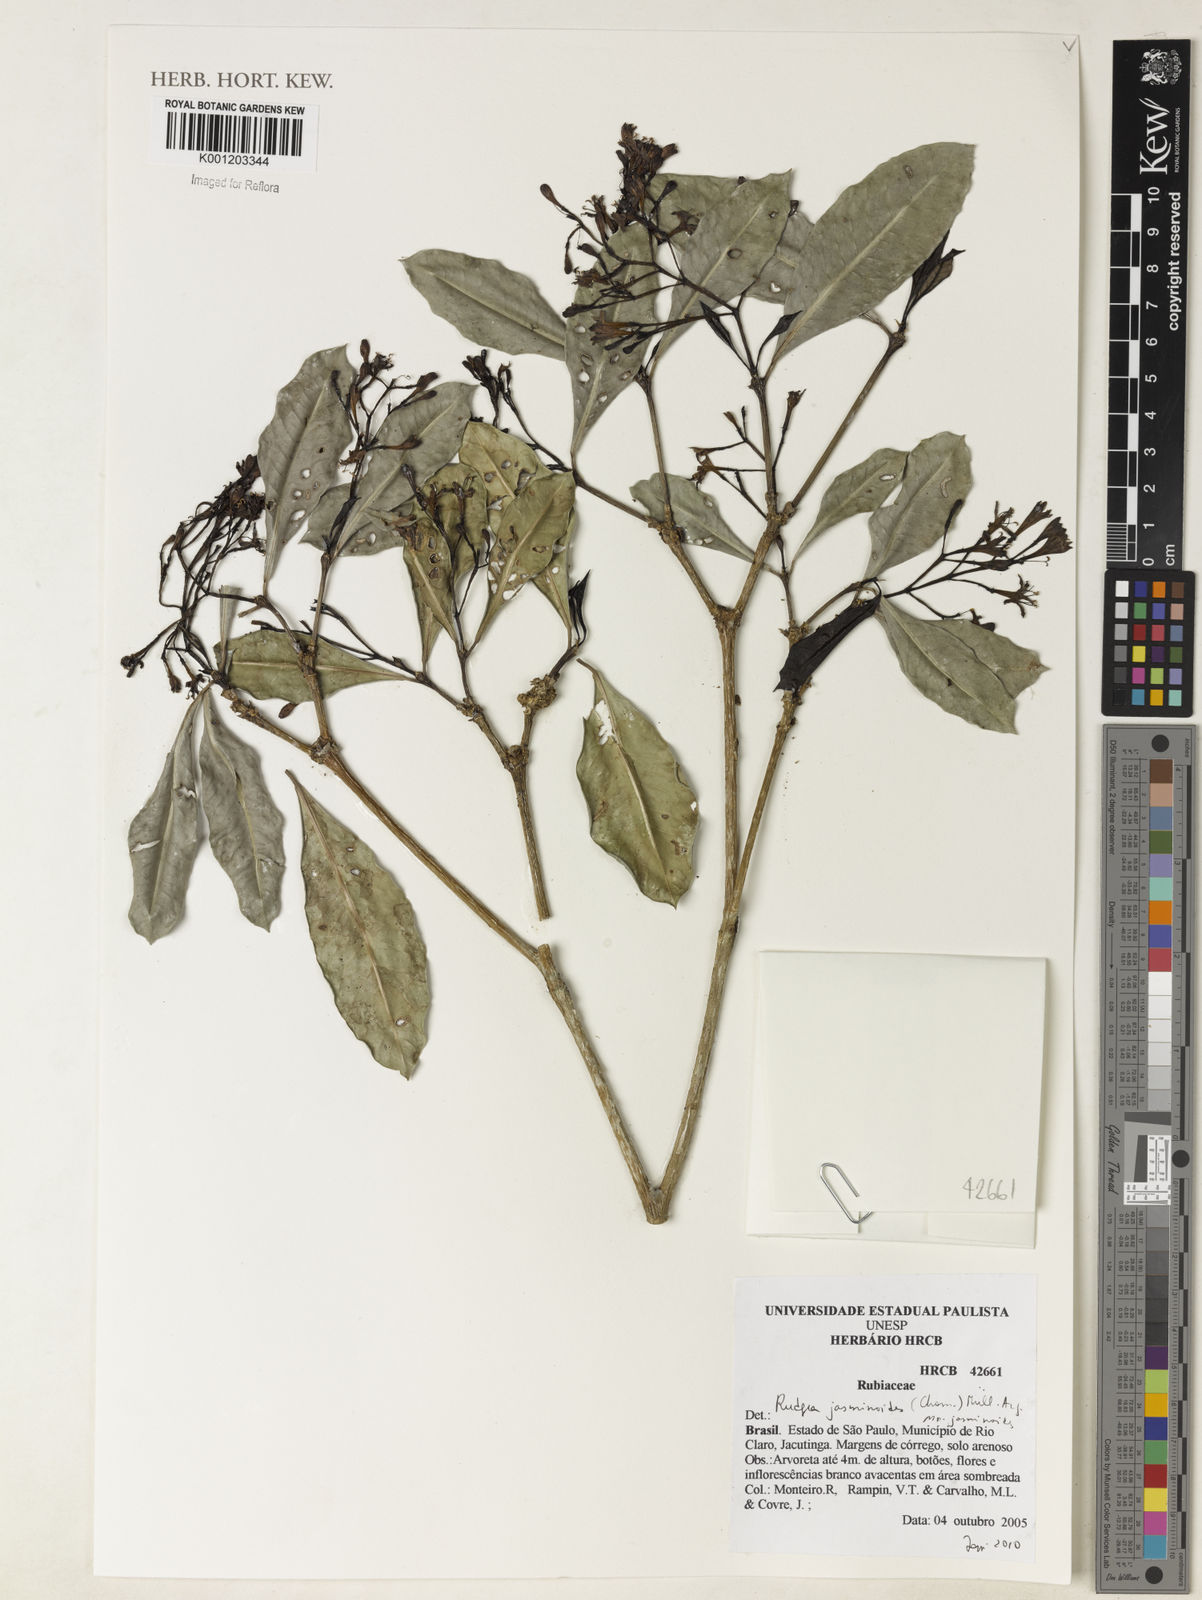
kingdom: Plantae
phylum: Tracheophyta
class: Magnoliopsida
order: Gentianales
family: Rubiaceae
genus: Rudgea
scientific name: Rudgea
